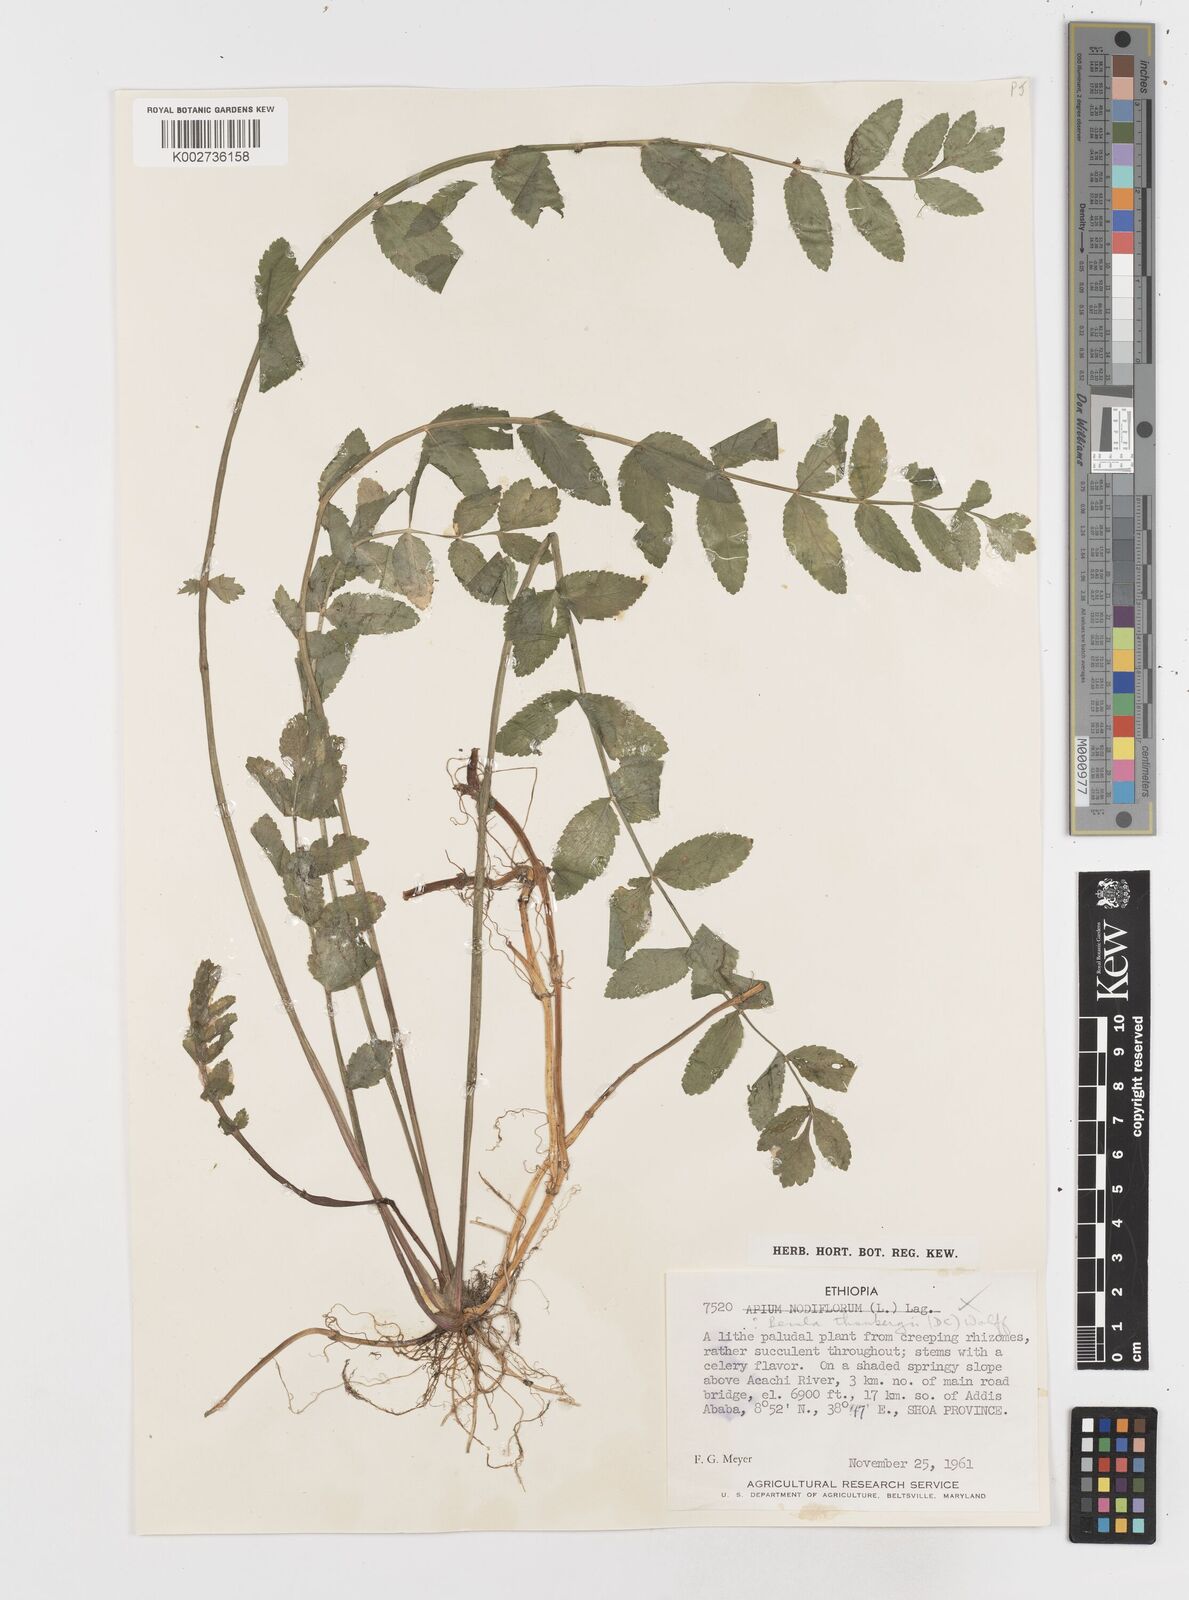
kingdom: Plantae
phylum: Tracheophyta
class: Magnoliopsida
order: Apiales
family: Apiaceae
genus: Berula
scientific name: Berula erecta
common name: Lesser water-parsnip
